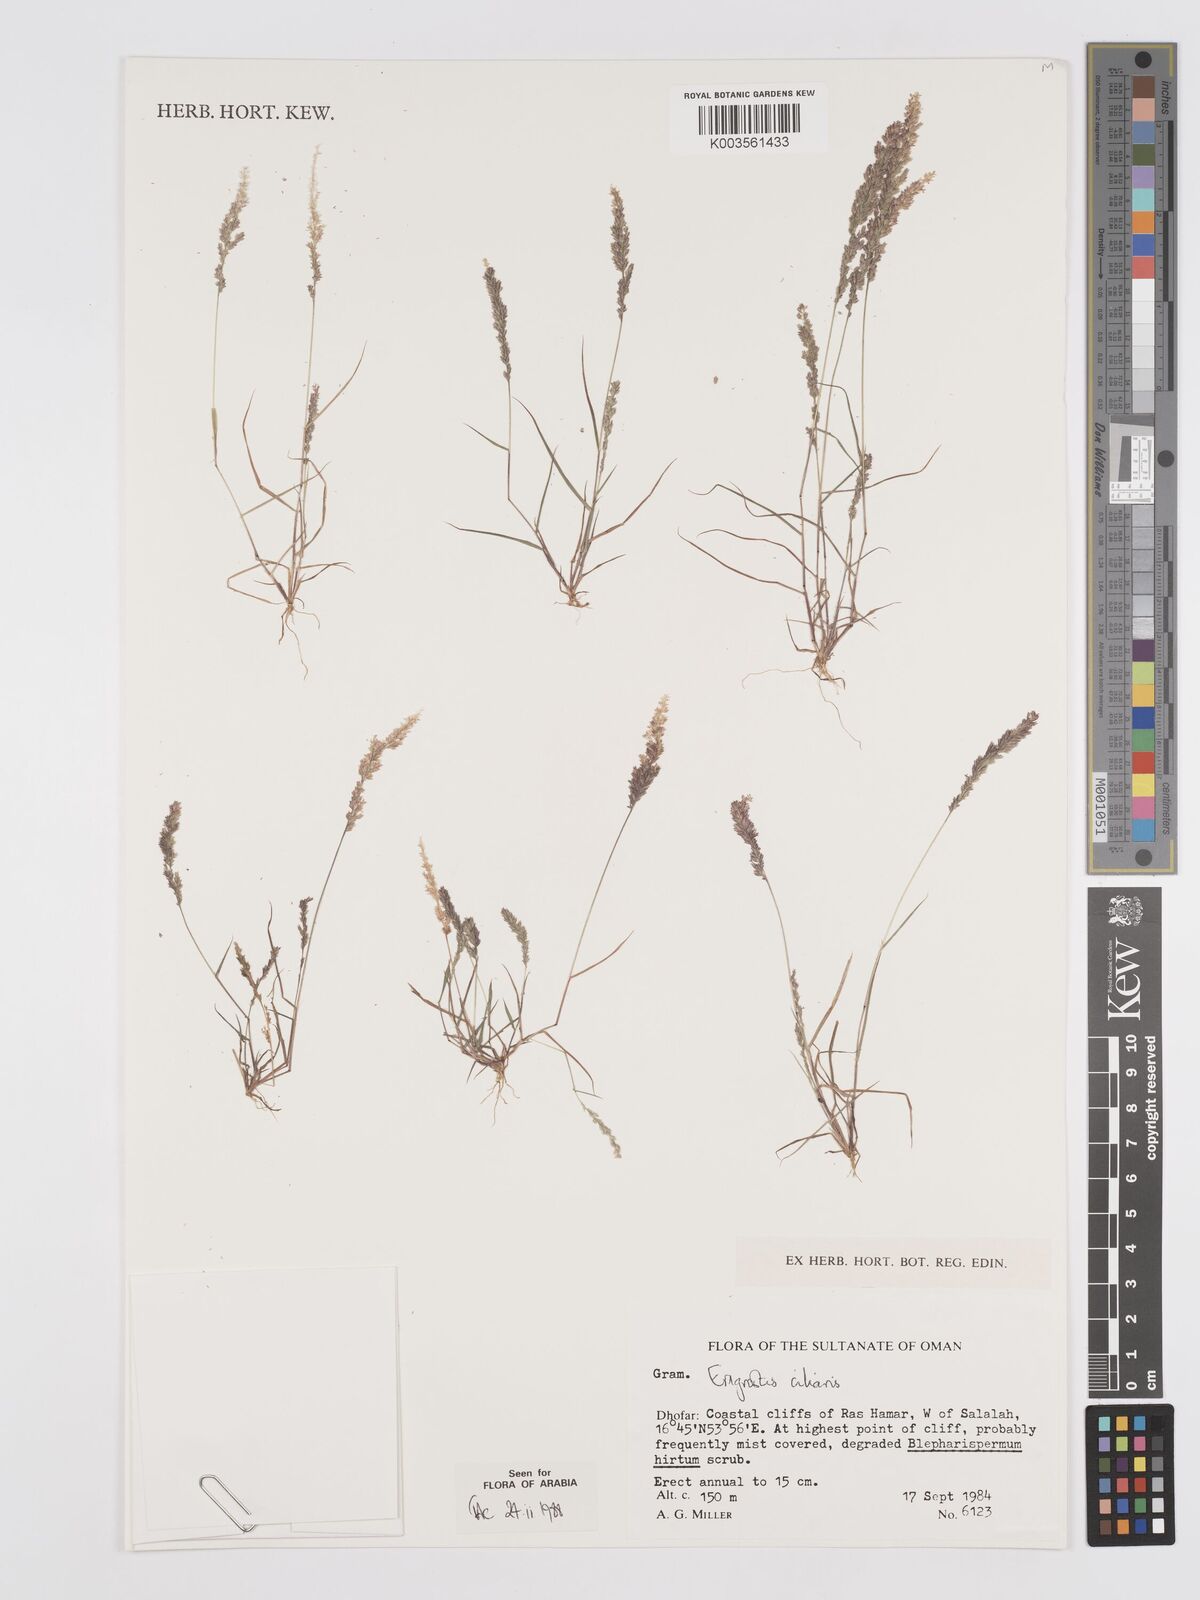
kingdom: Plantae
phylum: Tracheophyta
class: Liliopsida
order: Poales
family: Poaceae
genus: Eragrostis
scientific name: Eragrostis ciliaris
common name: Gophertail lovegrass
